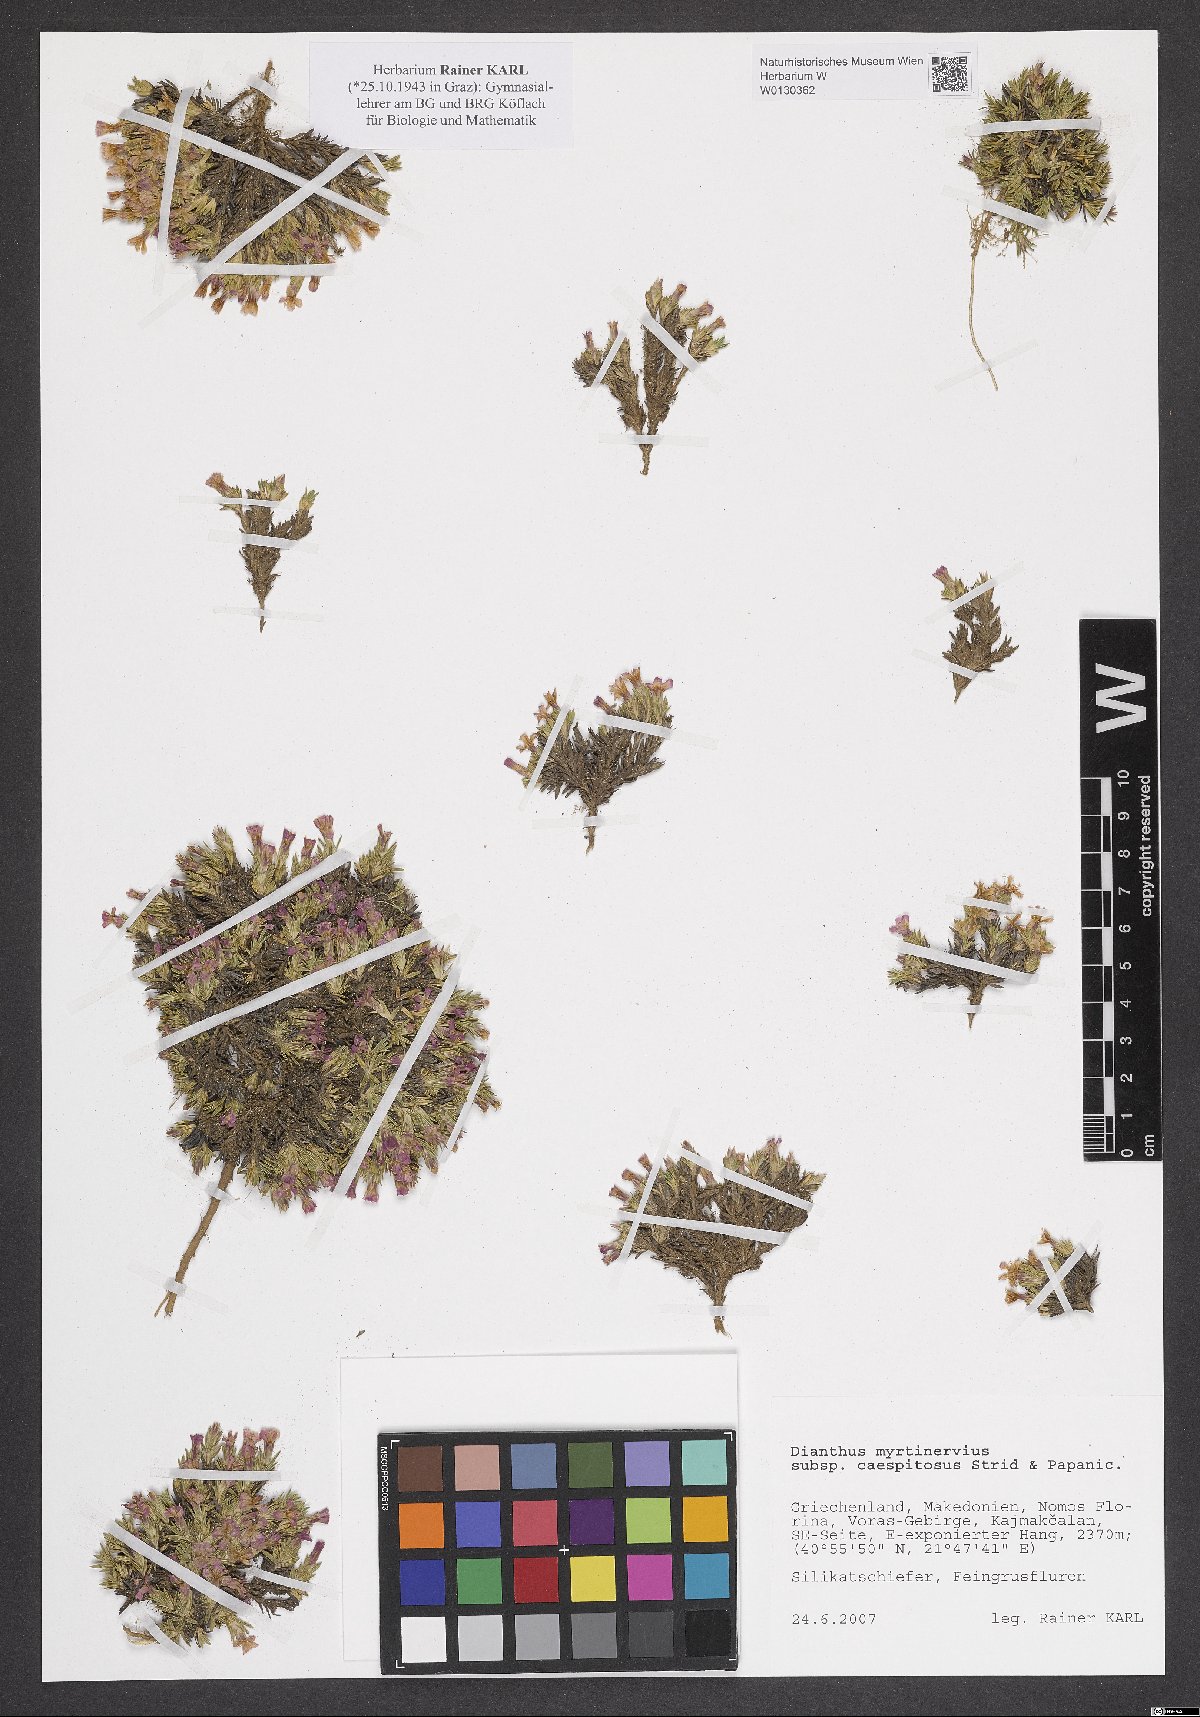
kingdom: Plantae
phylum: Tracheophyta
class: Magnoliopsida
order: Caryophyllales
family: Caryophyllaceae
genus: Dianthus
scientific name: Dianthus myrtinervius
